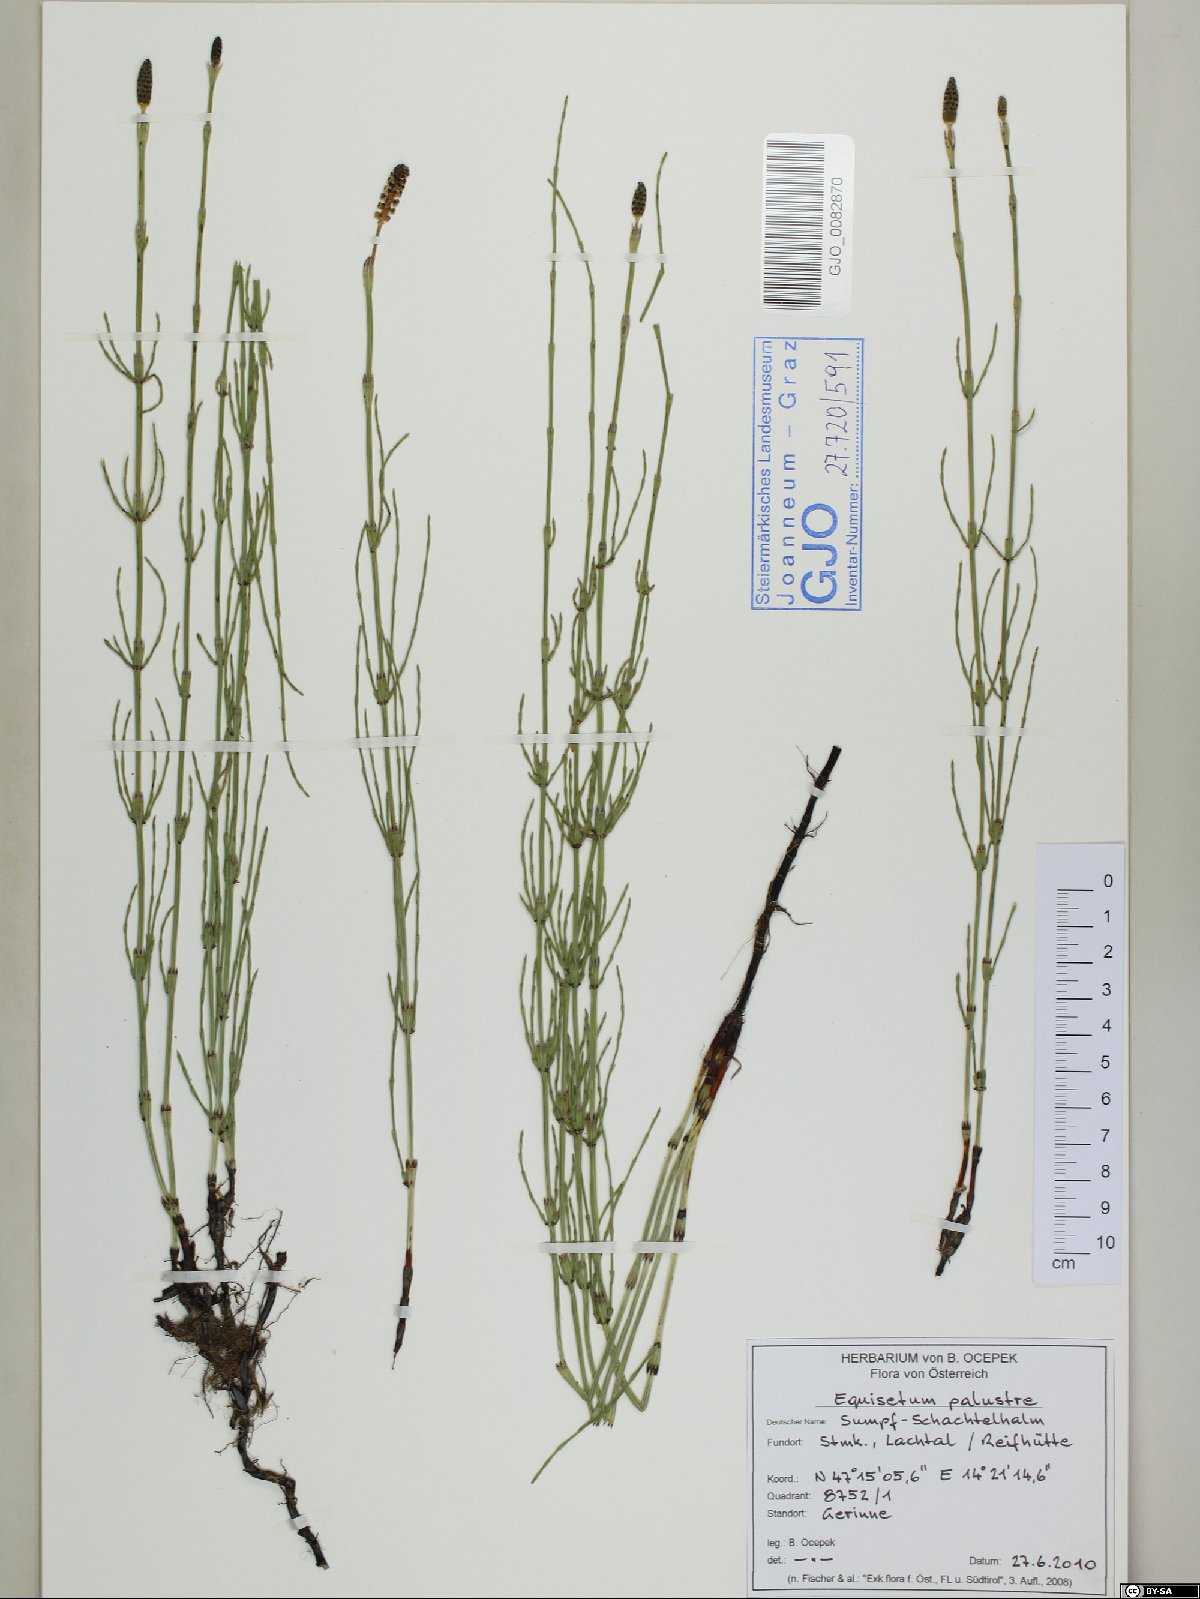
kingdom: Plantae
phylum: Tracheophyta
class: Polypodiopsida
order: Equisetales
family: Equisetaceae
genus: Equisetum
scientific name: Equisetum palustre
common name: Marsh horsetail
